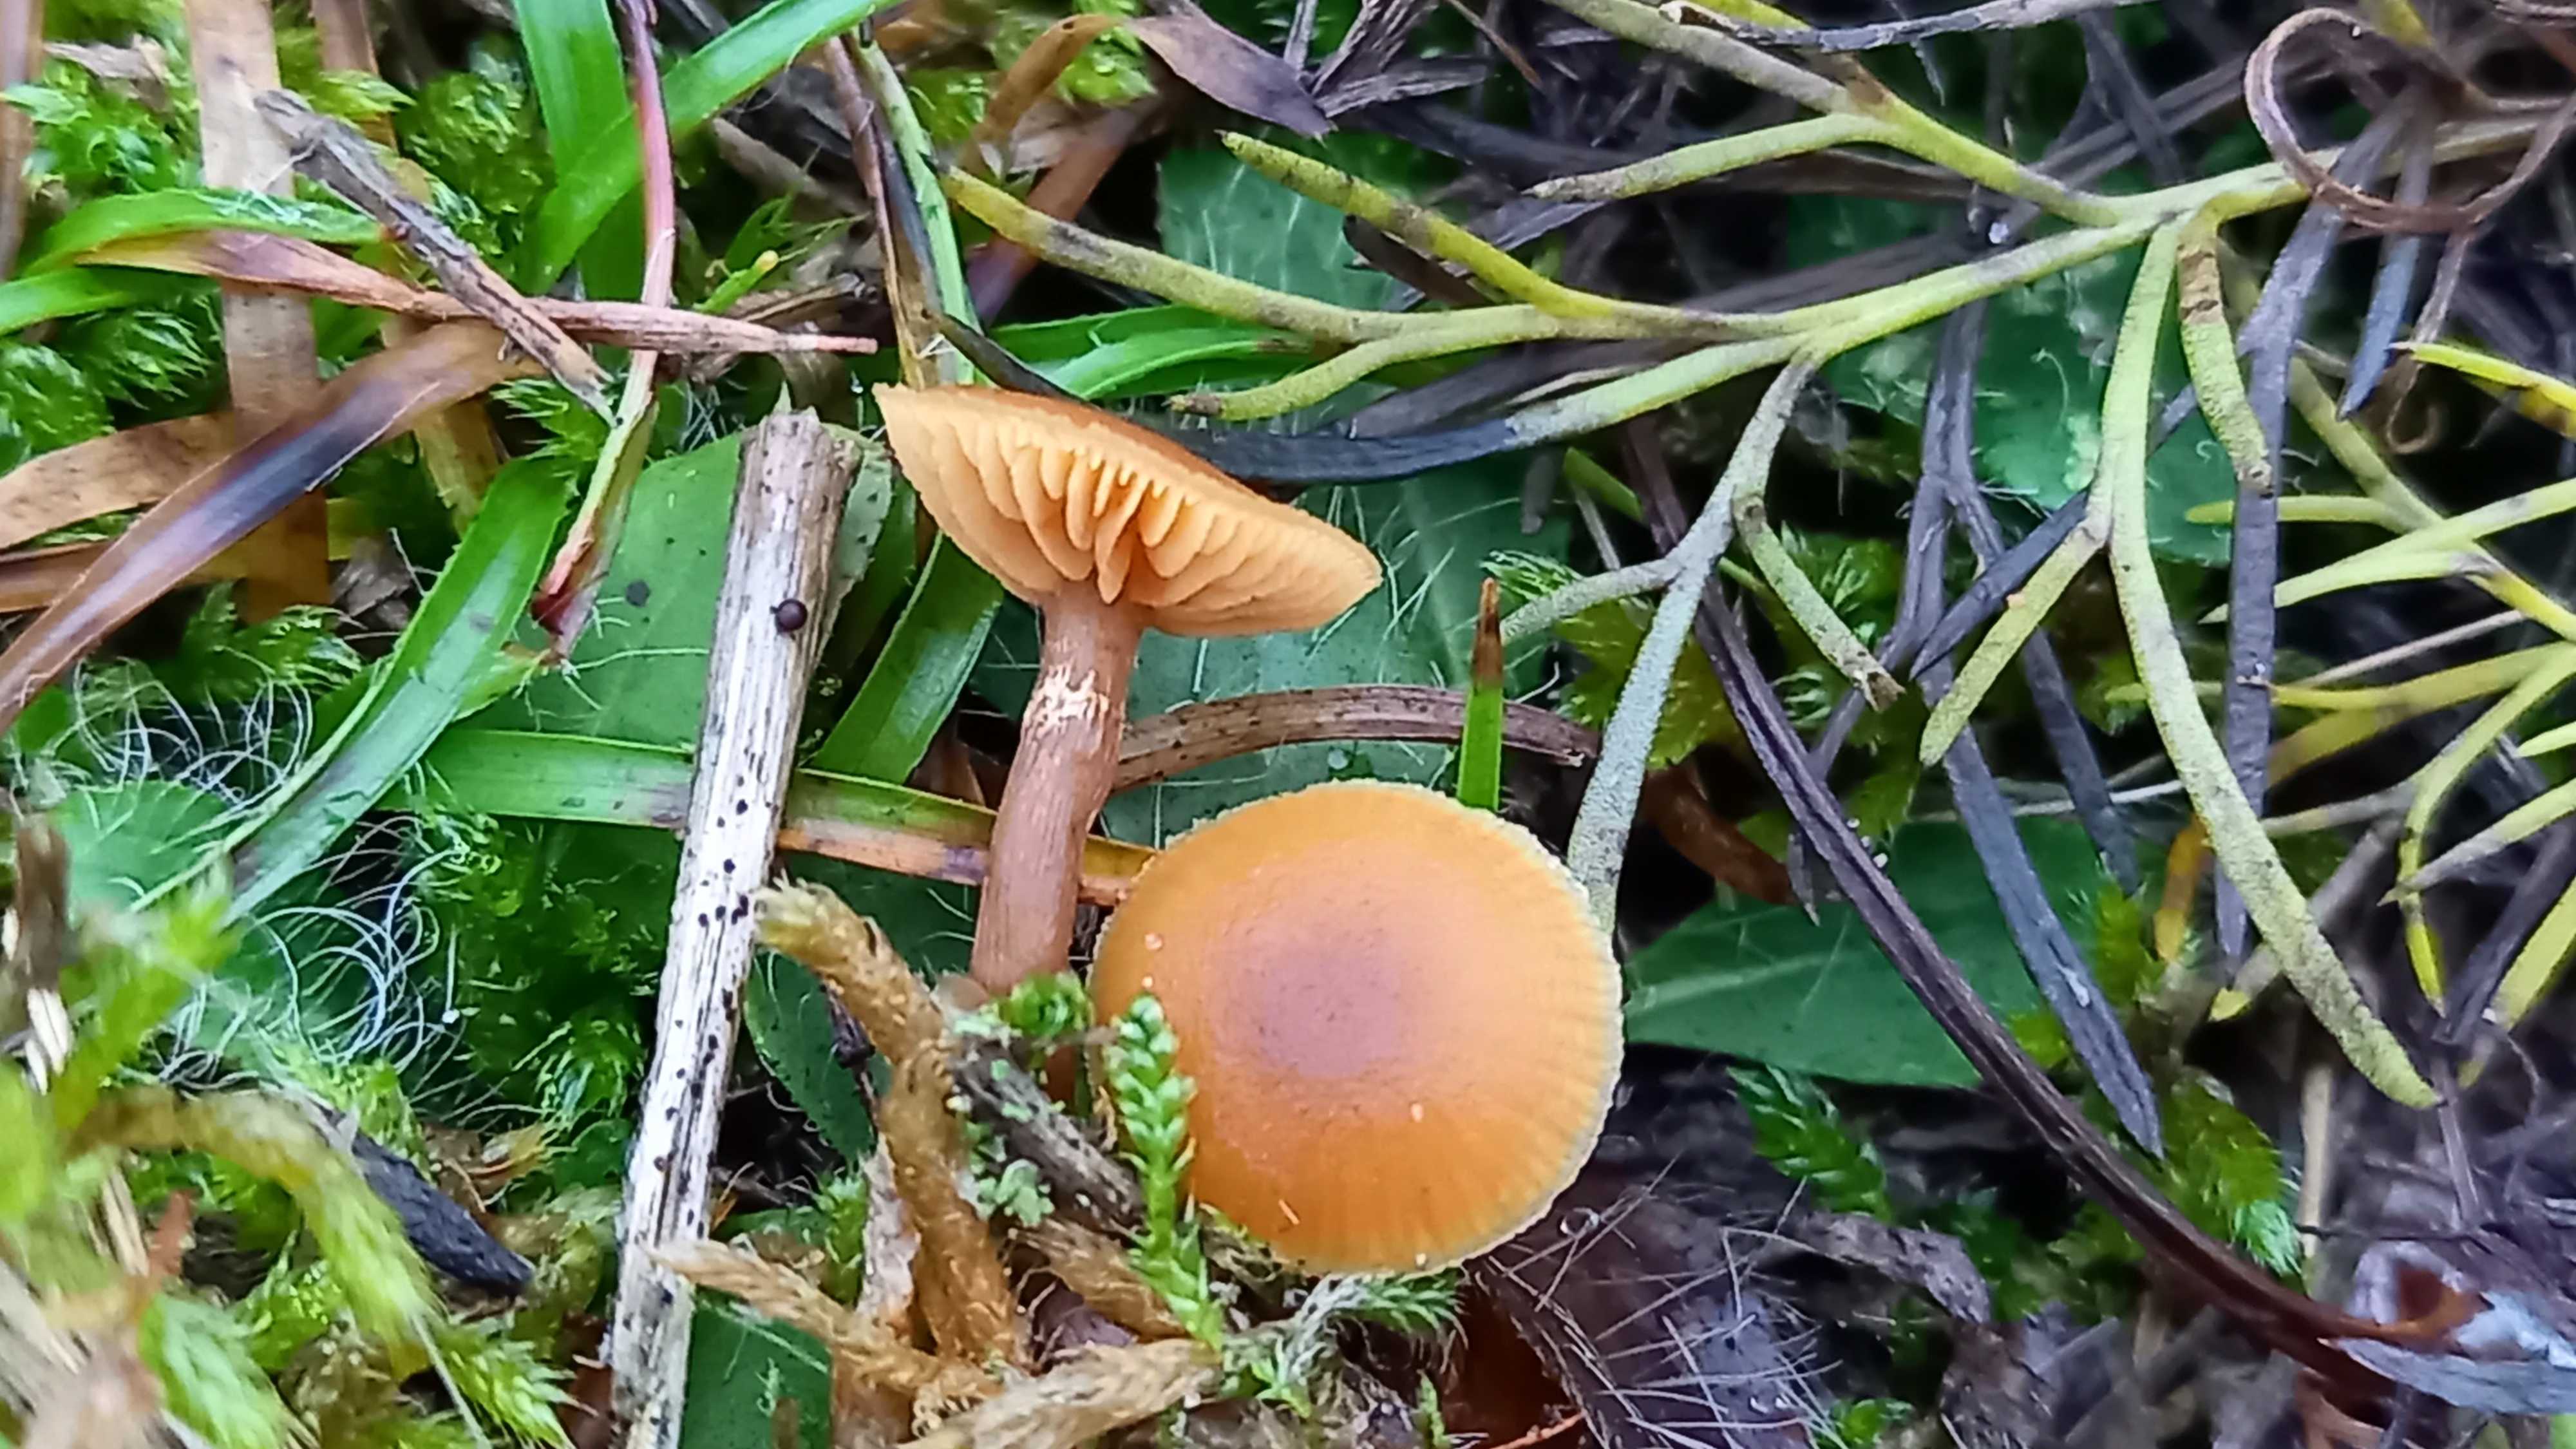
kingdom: Fungi
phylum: Basidiomycota
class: Agaricomycetes
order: Agaricales
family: Hymenogastraceae
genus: Galerina
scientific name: Galerina esteve-raventosii
